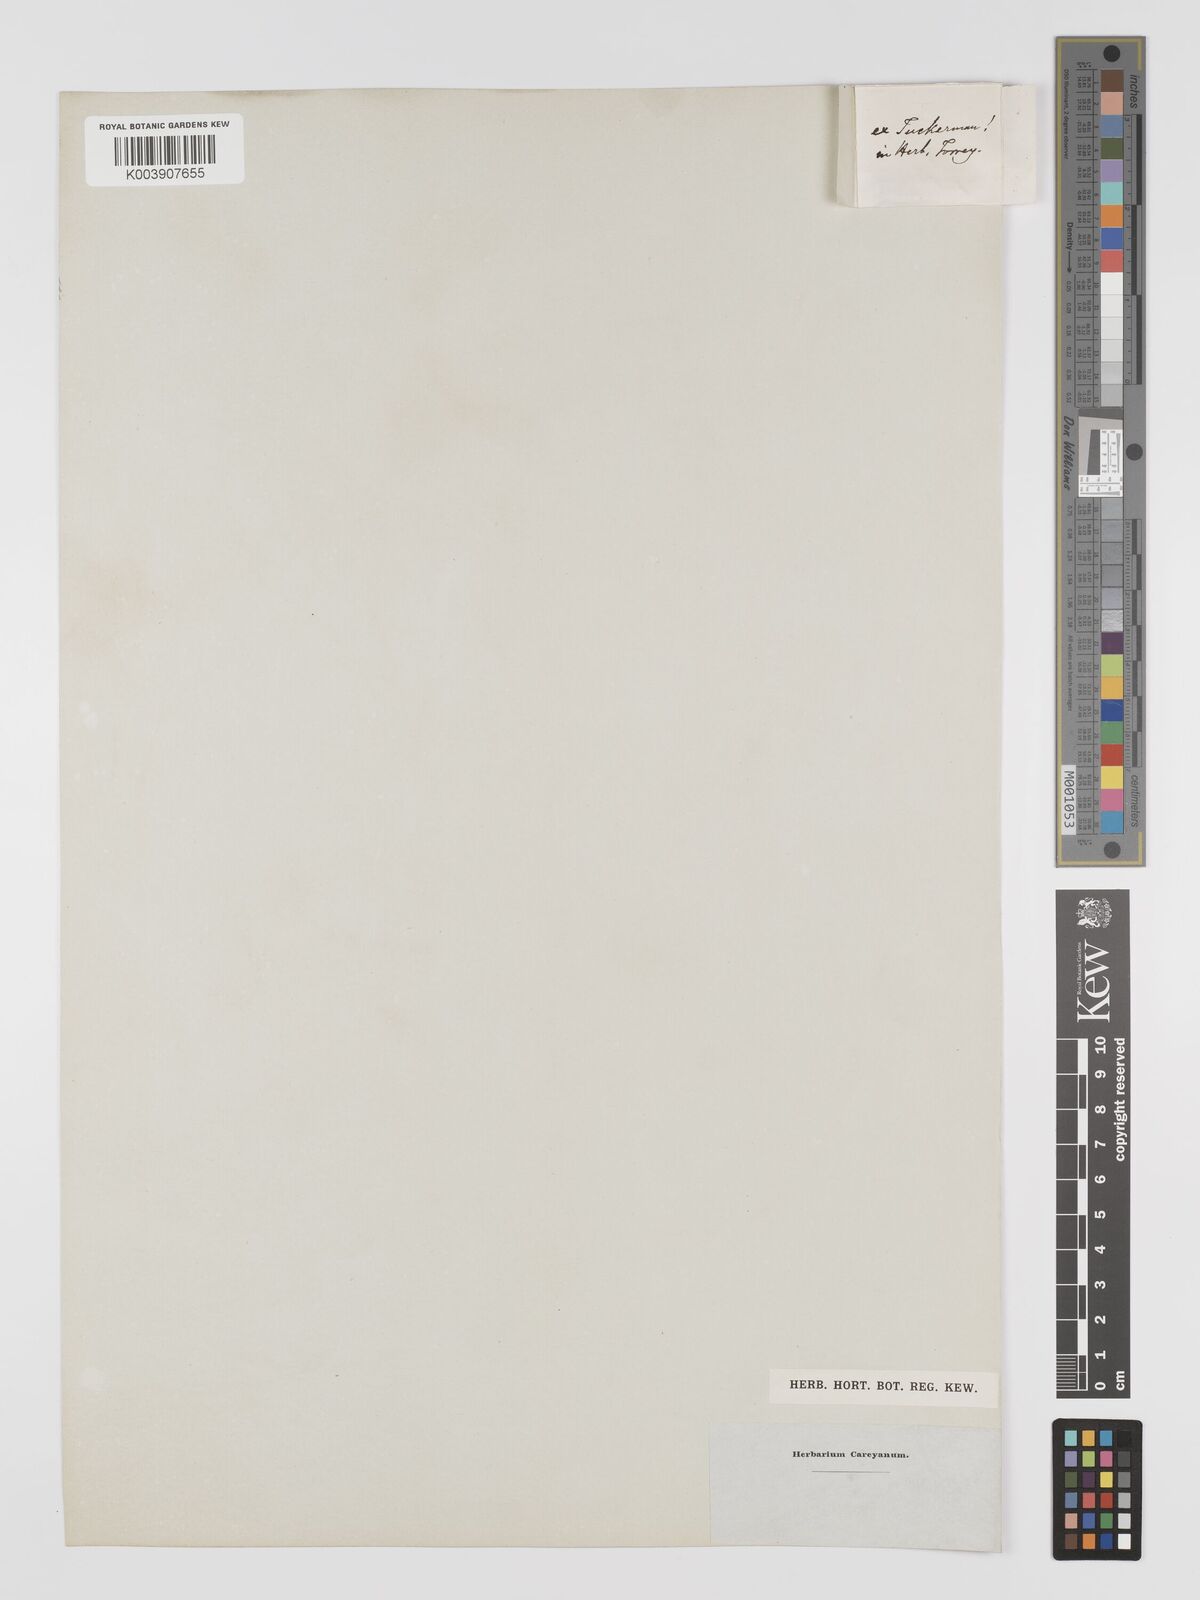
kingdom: Plantae
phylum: Tracheophyta
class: Liliopsida
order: Alismatales
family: Potamogetonaceae
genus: Potamogeton
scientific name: Potamogeton pulcher
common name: Heart-leaved pondweed
